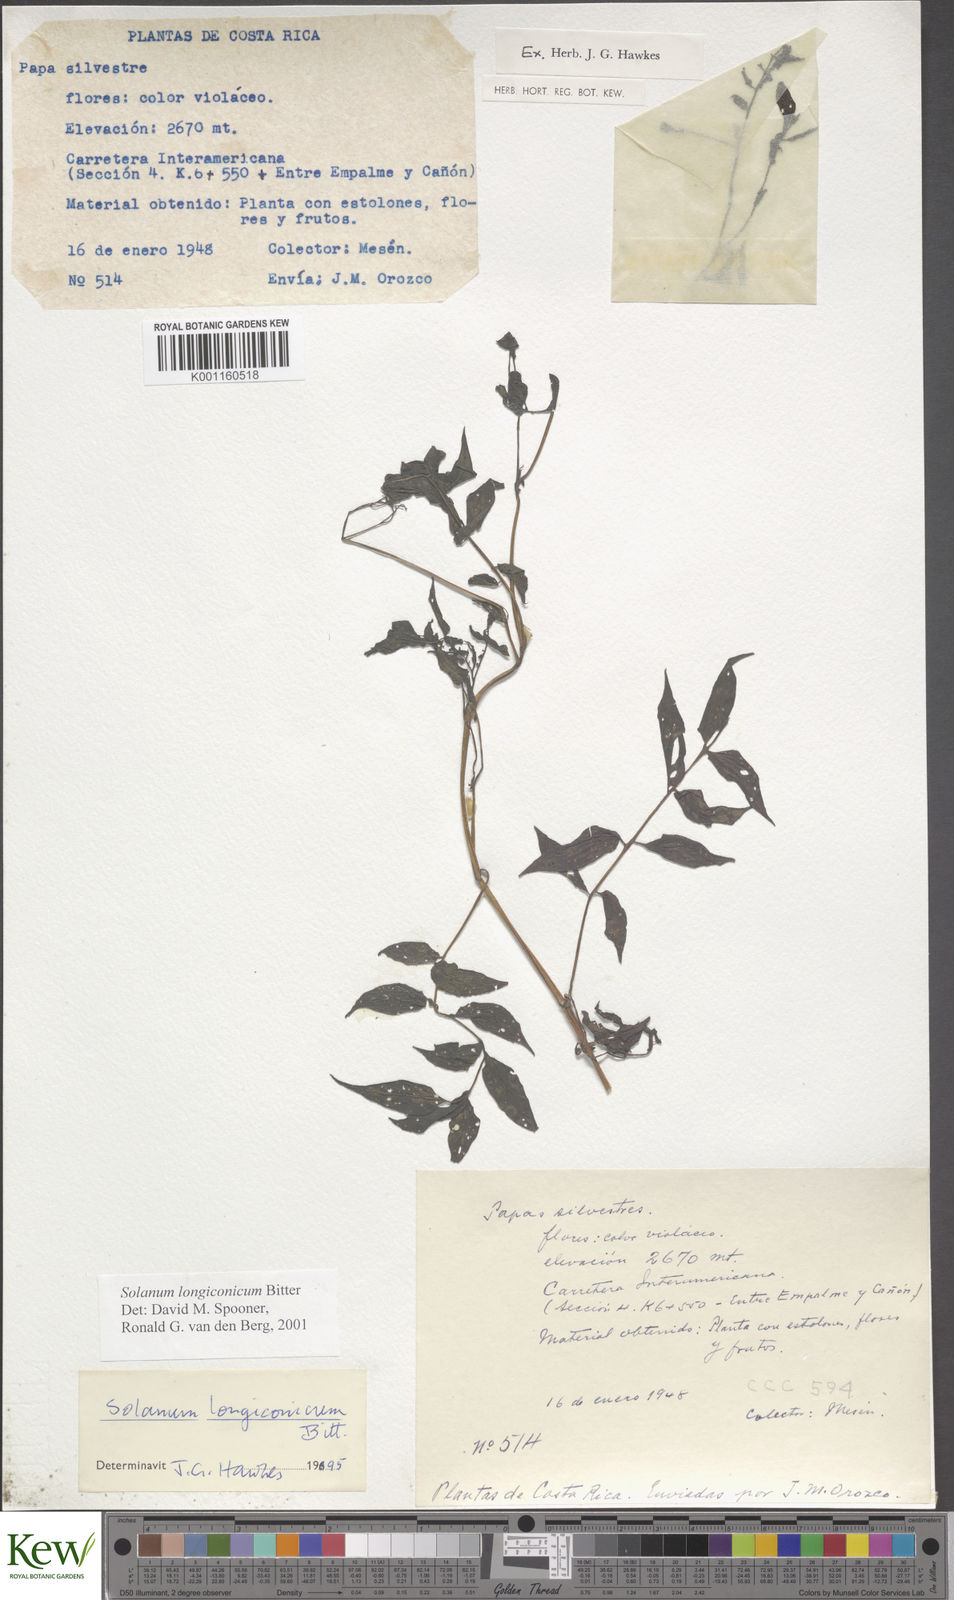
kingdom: Plantae
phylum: Tracheophyta
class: Magnoliopsida
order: Solanales
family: Solanaceae
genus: Solanum
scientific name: Solanum longiconicum
